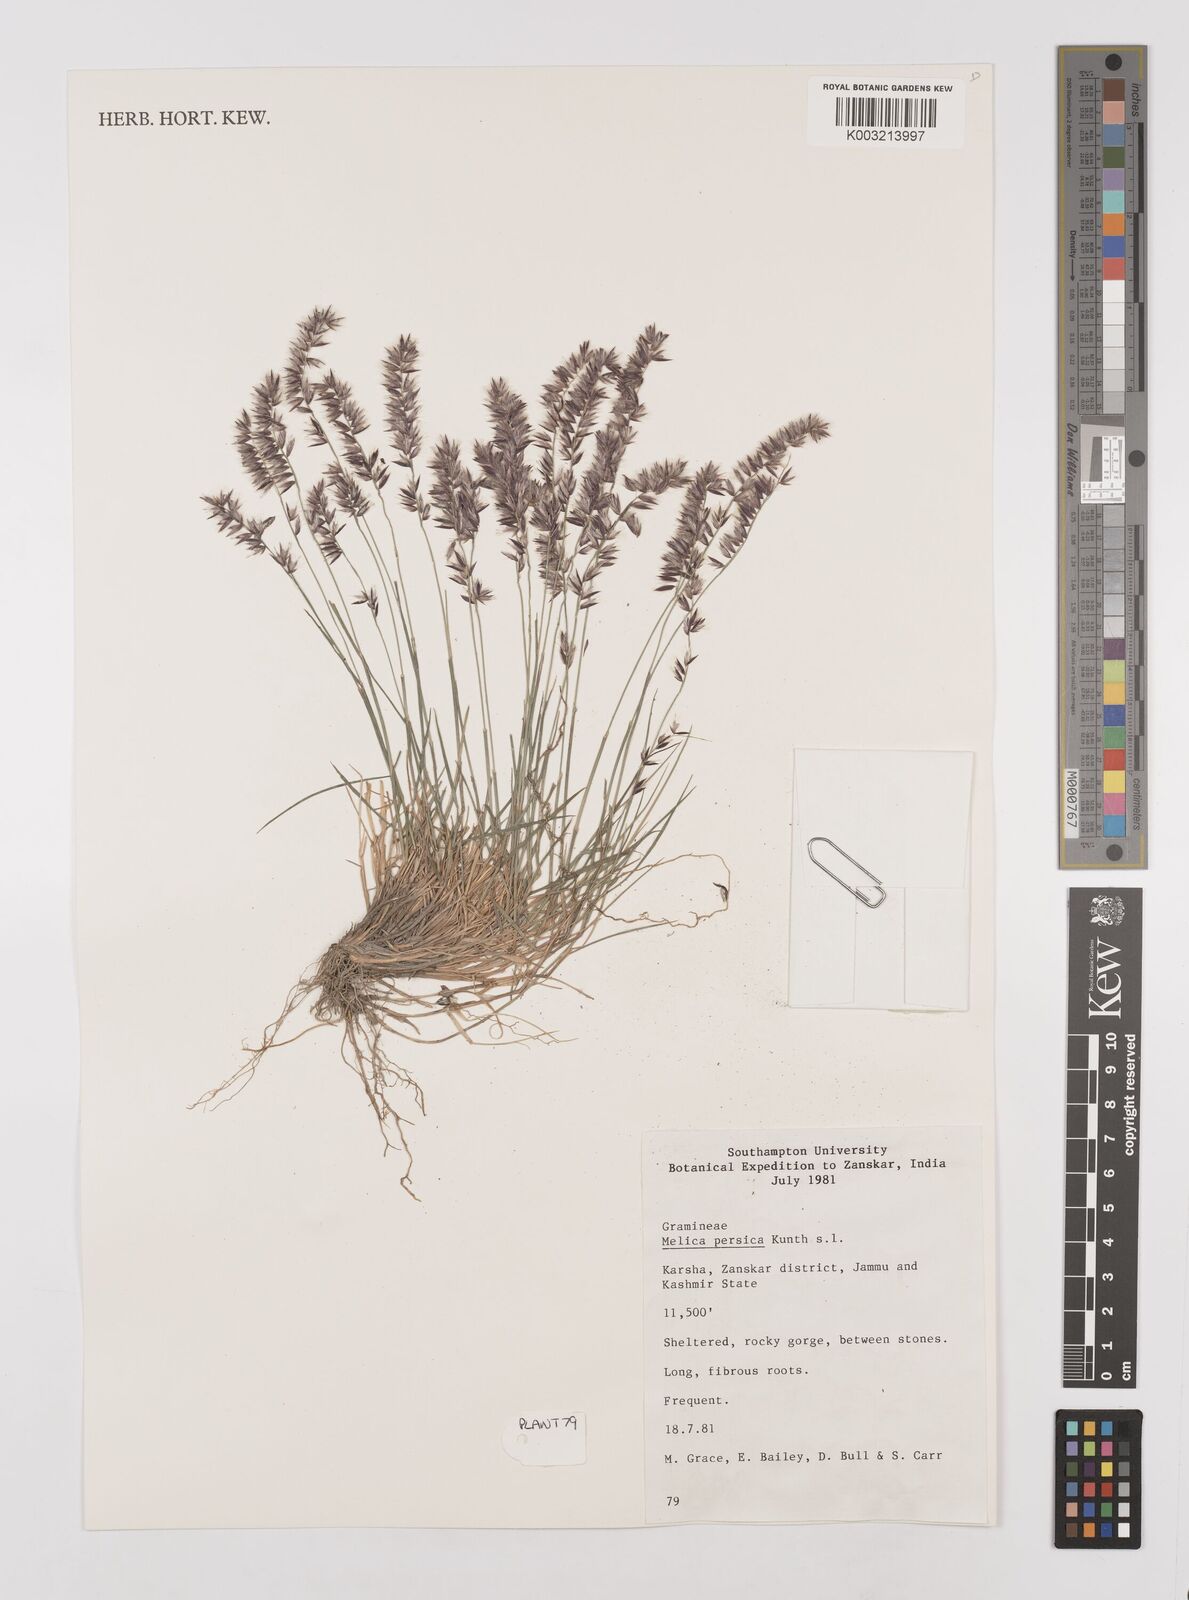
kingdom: Plantae
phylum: Tracheophyta
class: Liliopsida
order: Poales
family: Poaceae
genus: Melica
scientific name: Melica persica
